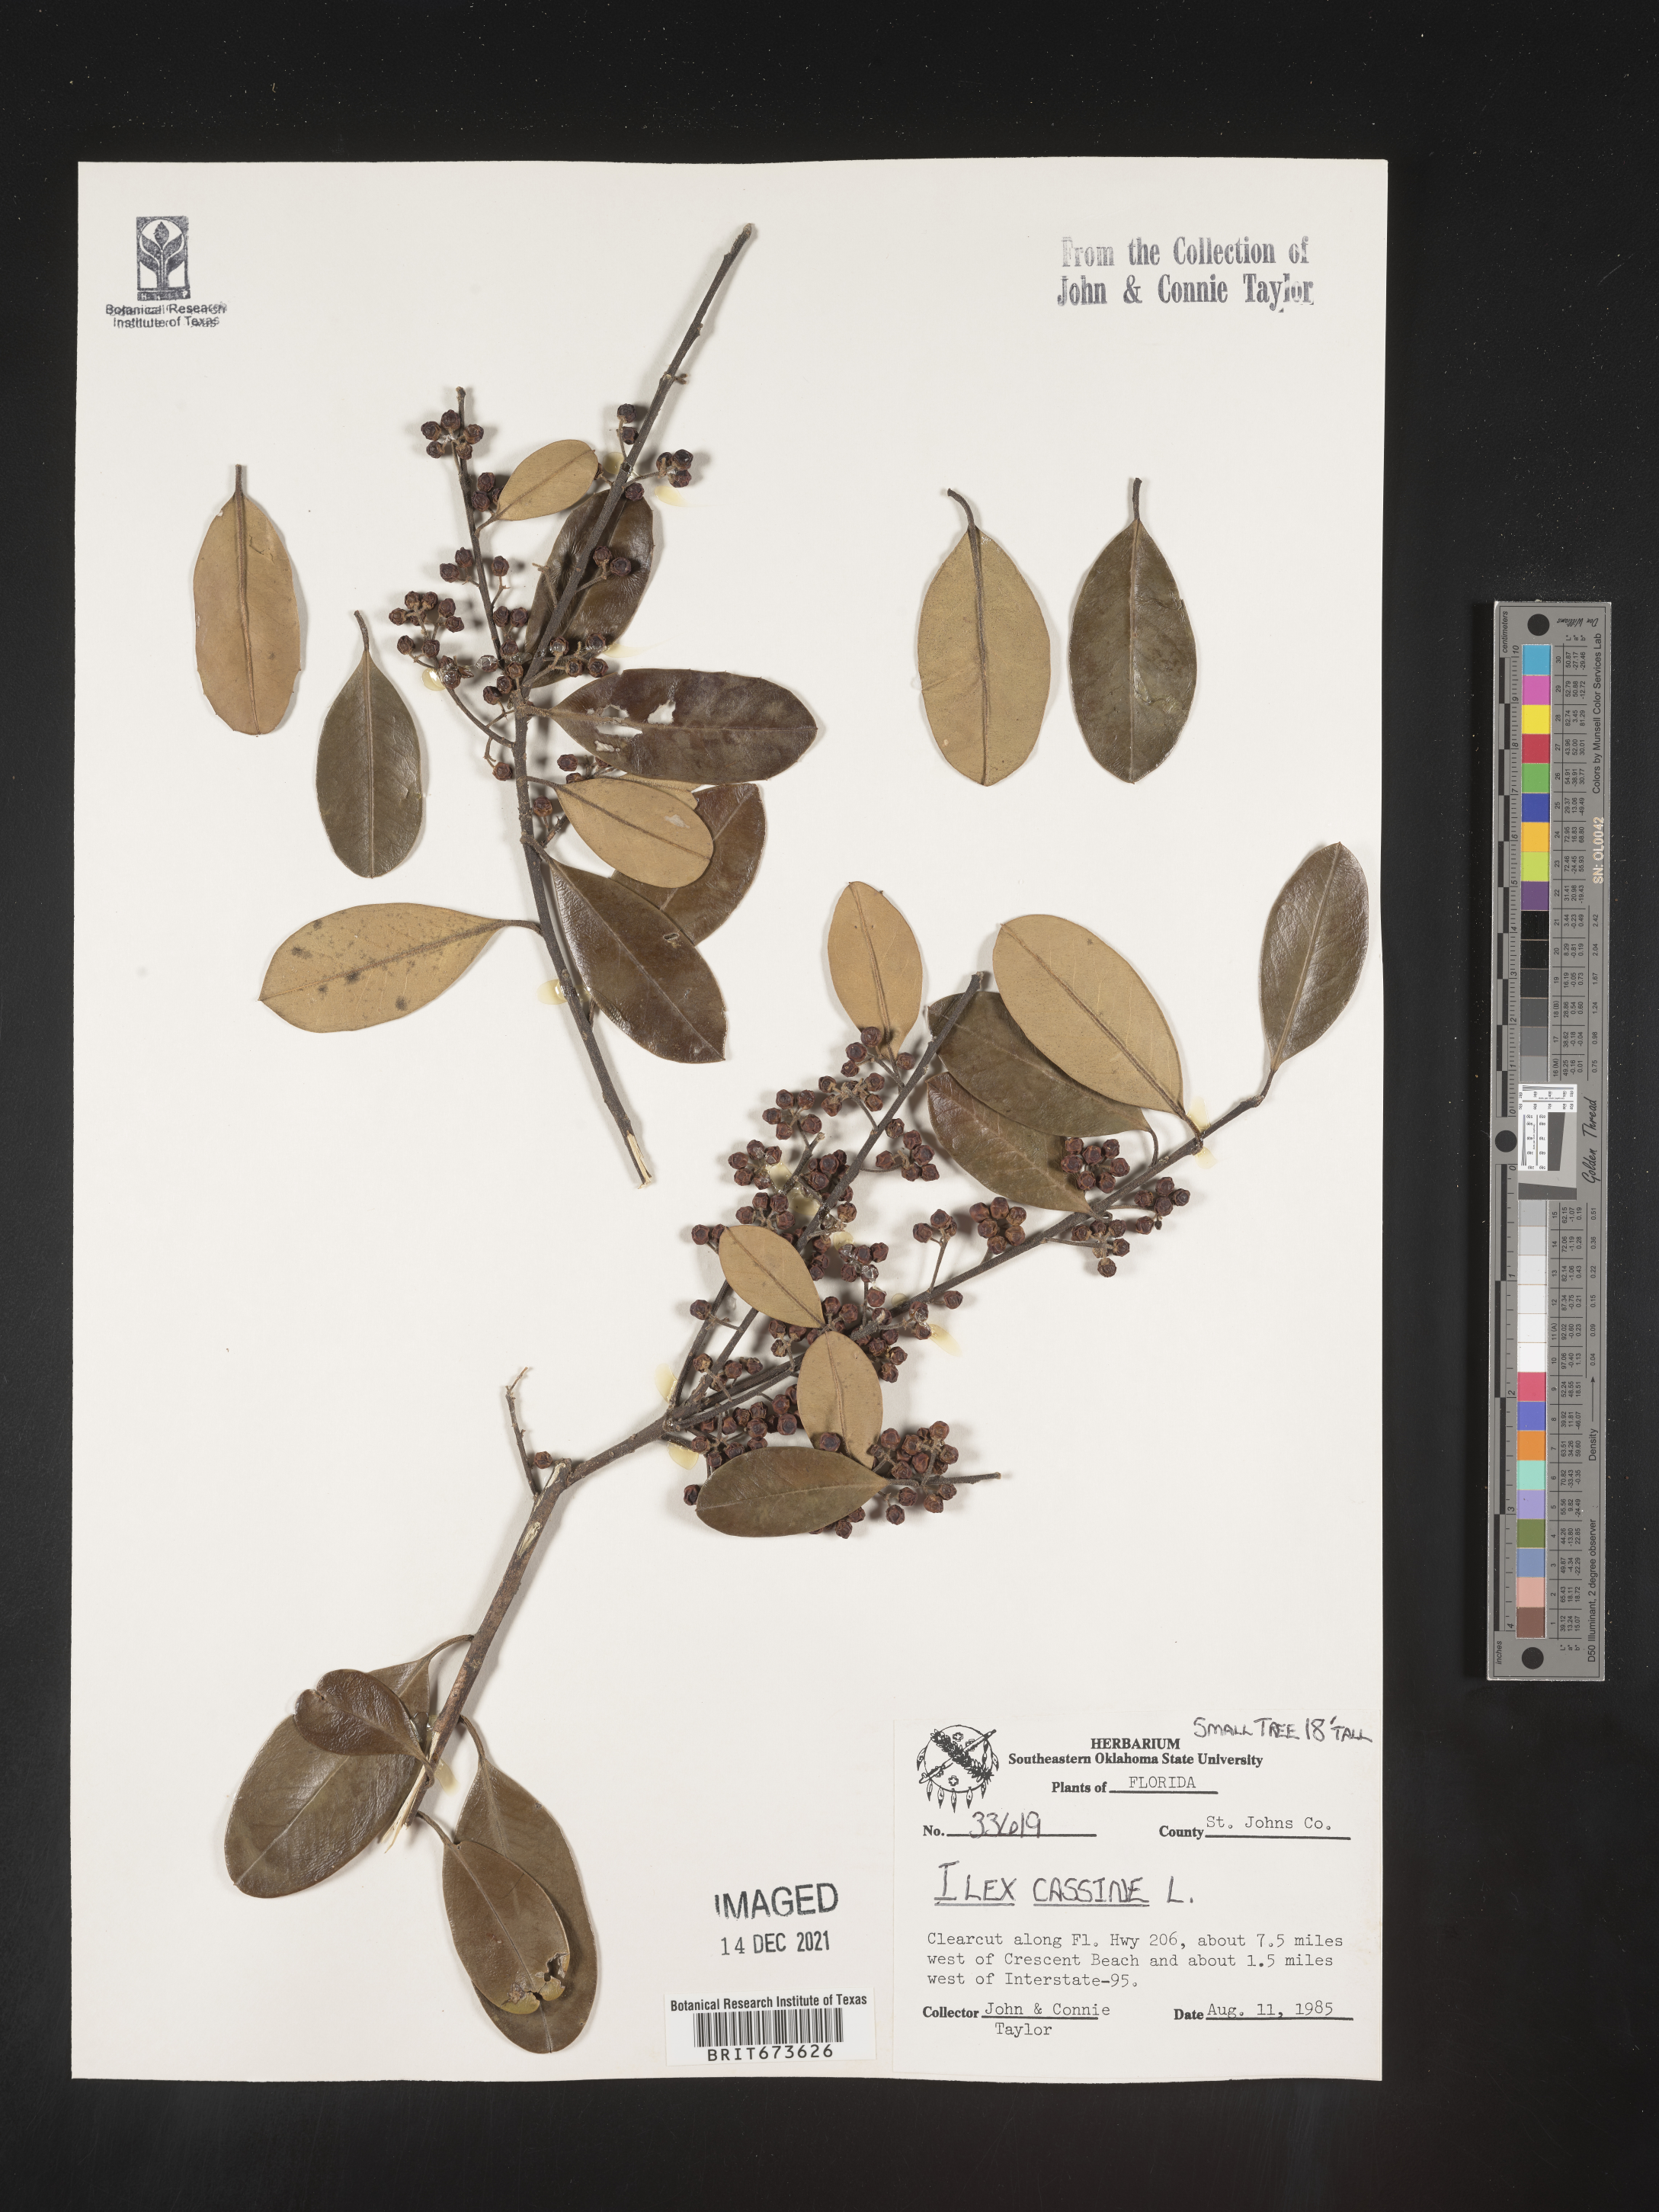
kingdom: Plantae
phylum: Tracheophyta
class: Magnoliopsida
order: Aquifoliales
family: Aquifoliaceae
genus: Ilex
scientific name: Ilex cassine
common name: Dahoon
